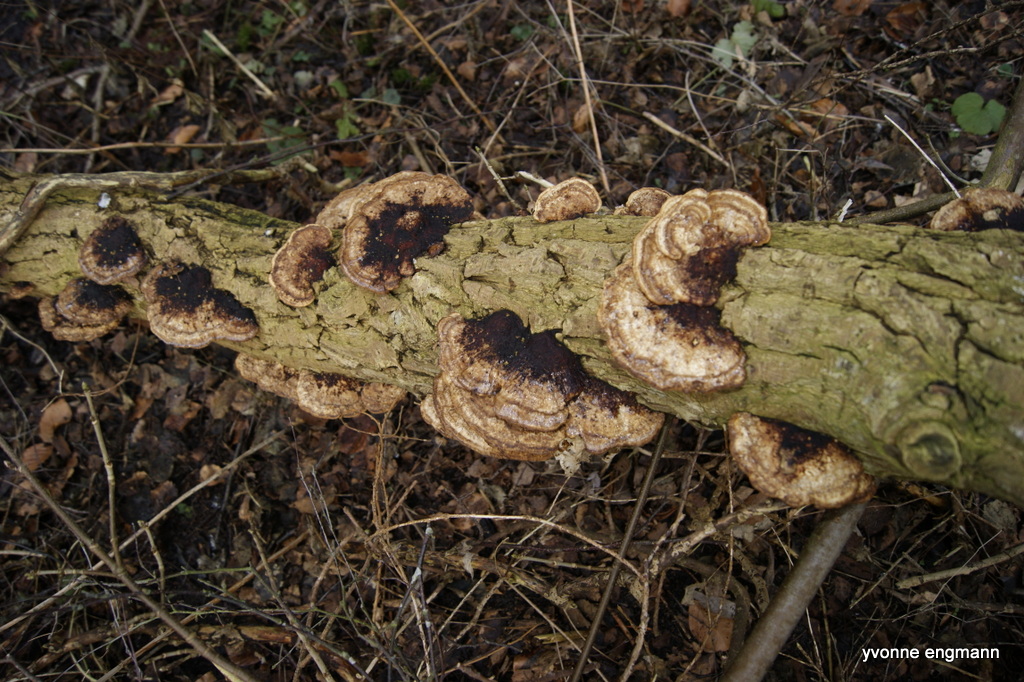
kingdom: Fungi
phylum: Basidiomycota
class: Agaricomycetes
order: Polyporales
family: Polyporaceae
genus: Daedaleopsis
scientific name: Daedaleopsis confragosa
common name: rødmende læderporesvamp
